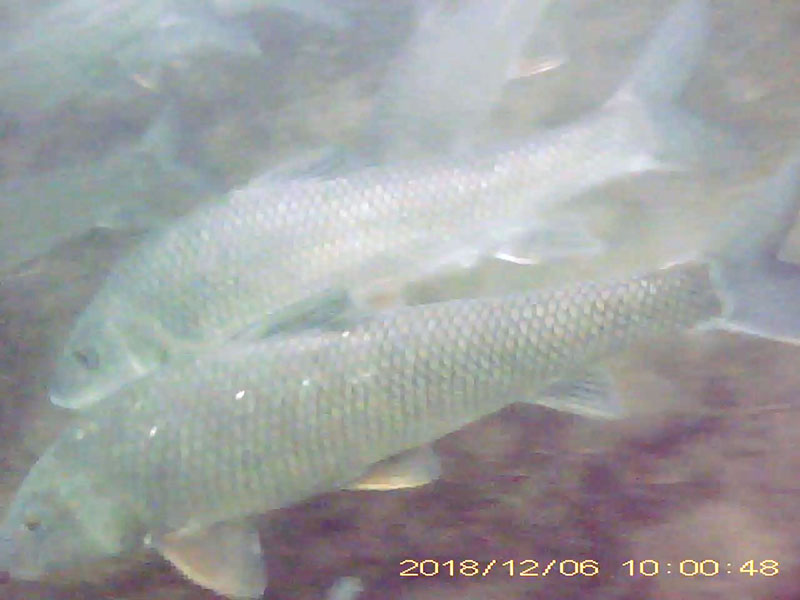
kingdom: Animalia
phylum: Chordata
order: Cypriniformes
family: Cyprinidae
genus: Hemibarbus
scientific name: Hemibarbus labeo
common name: ニゴイ
